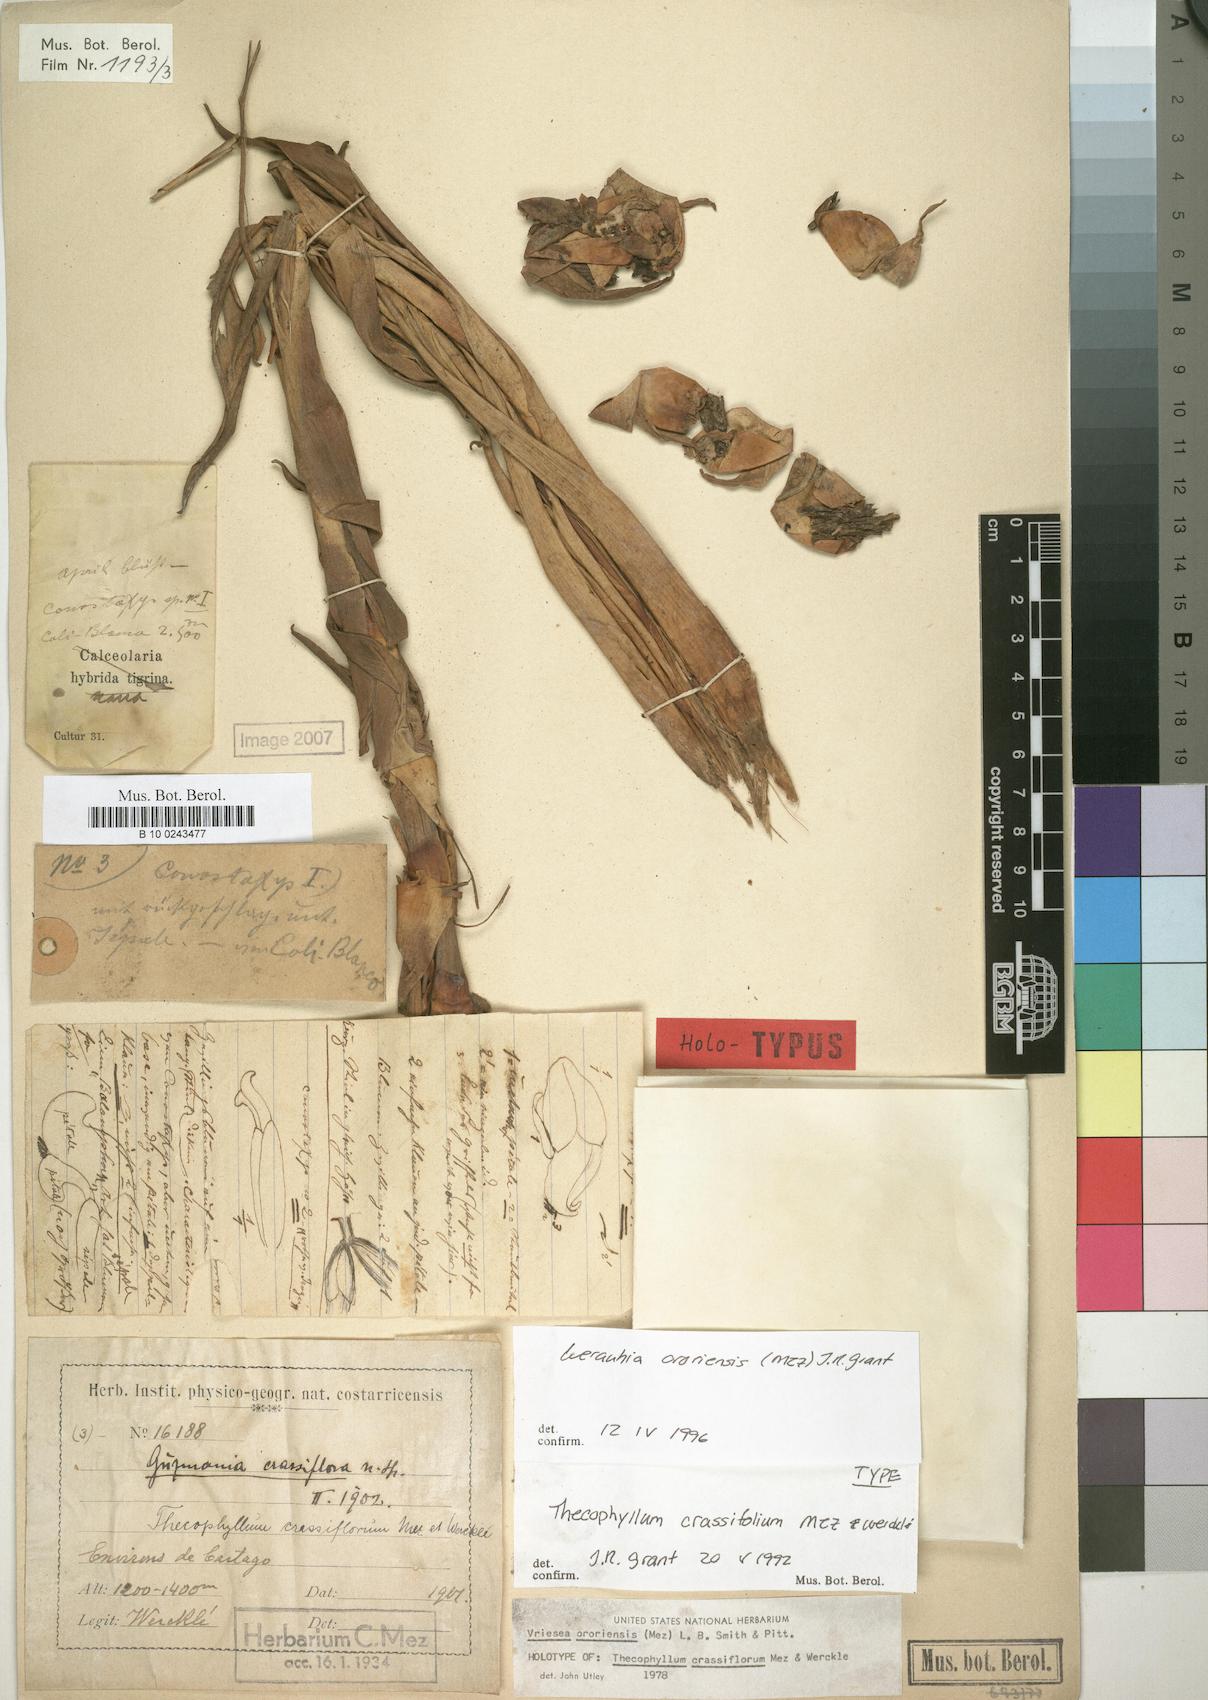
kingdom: Plantae
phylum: Tracheophyta
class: Liliopsida
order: Poales
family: Bromeliaceae
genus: Werauhia
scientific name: Werauhia ororiensis
